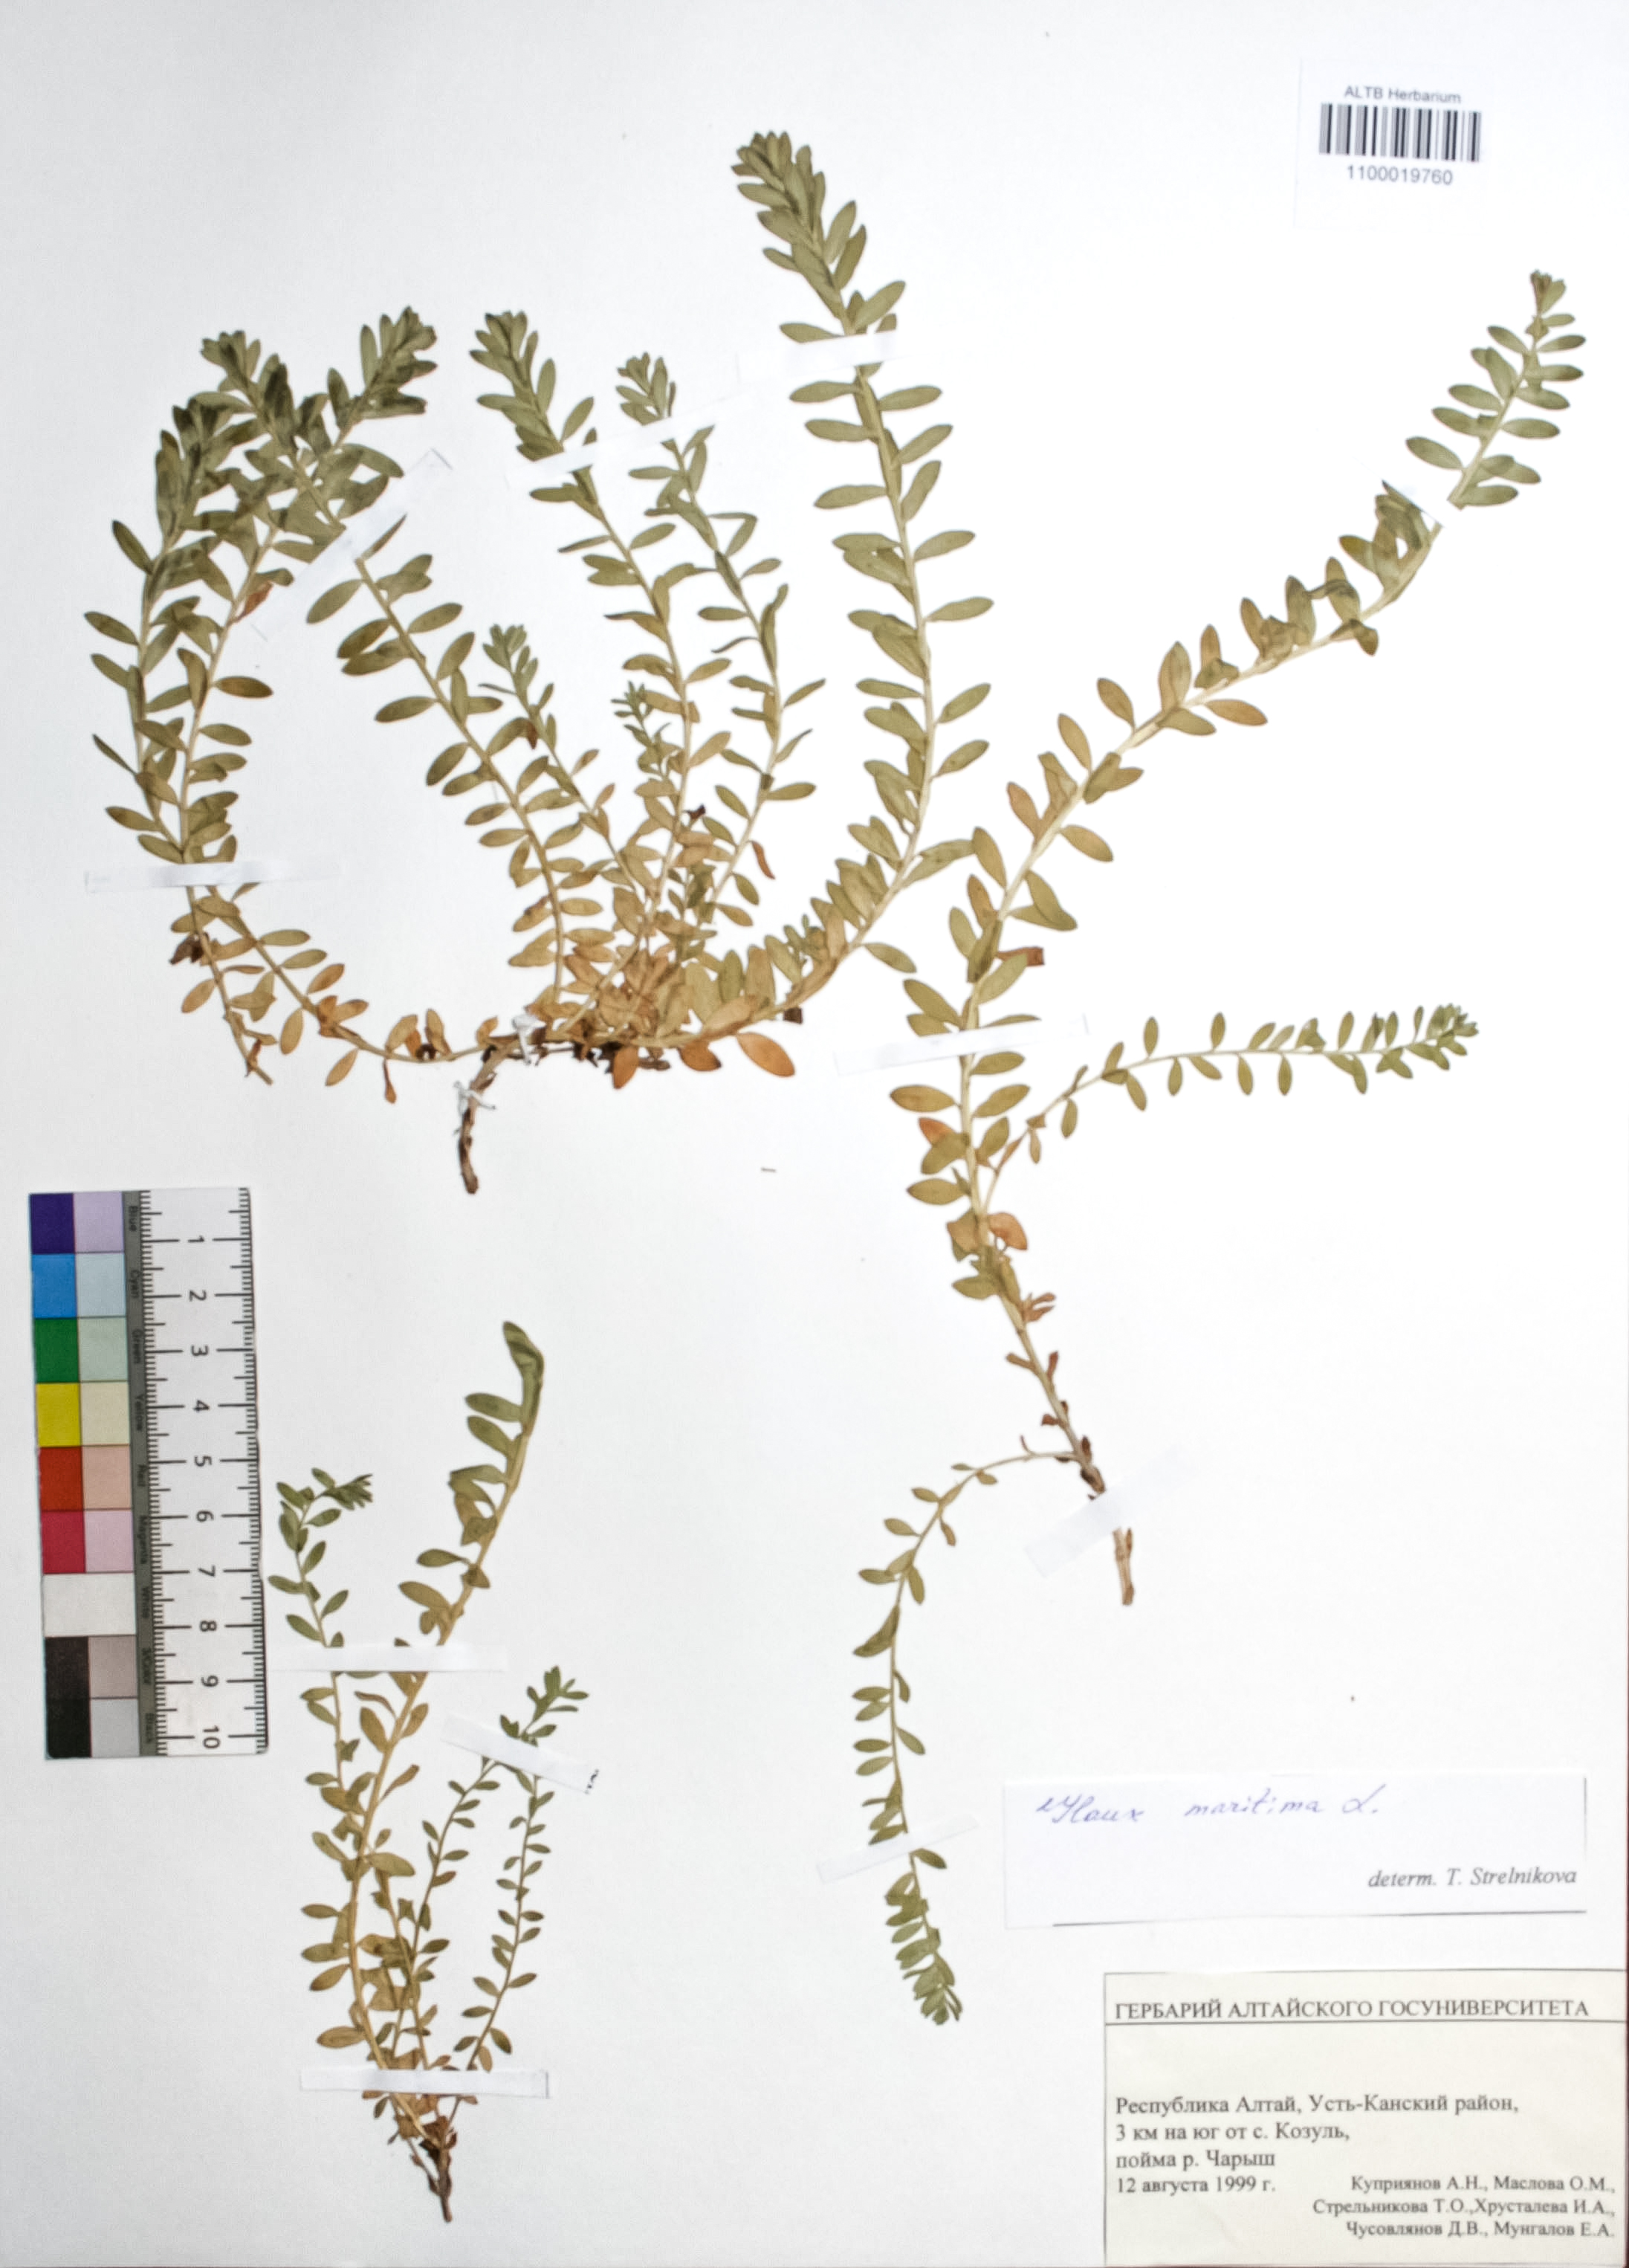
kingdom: Plantae
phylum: Tracheophyta
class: Magnoliopsida
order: Ericales
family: Primulaceae
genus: Lysimachia
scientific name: Lysimachia maritima
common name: Sea milkwort
